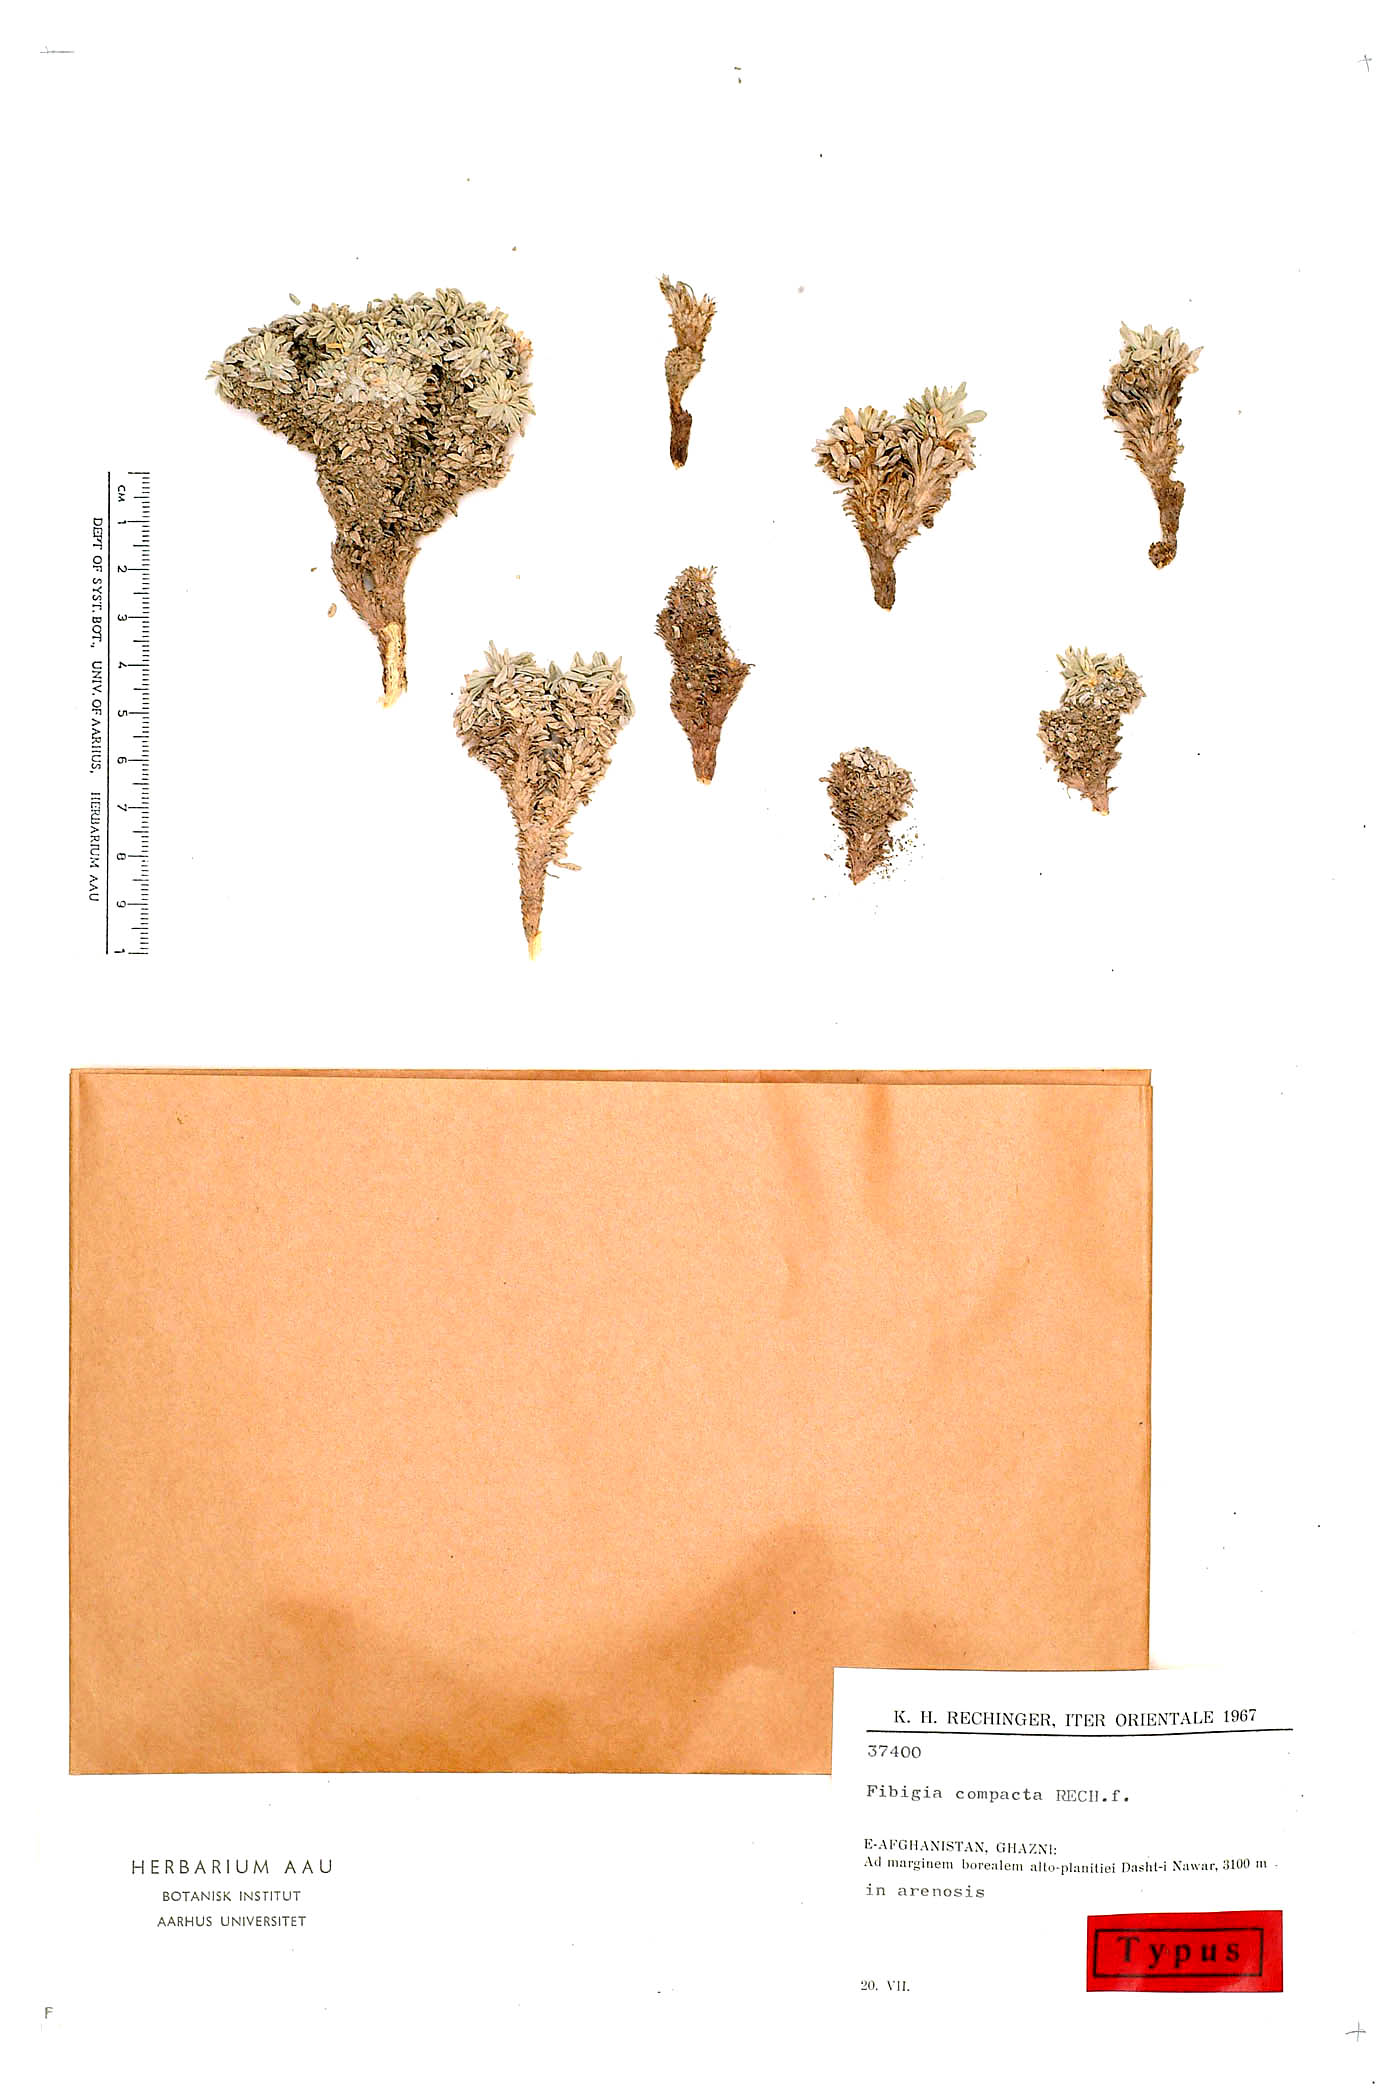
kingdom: Plantae
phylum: Tracheophyta
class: Magnoliopsida
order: Brassicales
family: Brassicaceae
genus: Irania
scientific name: Irania compacta
